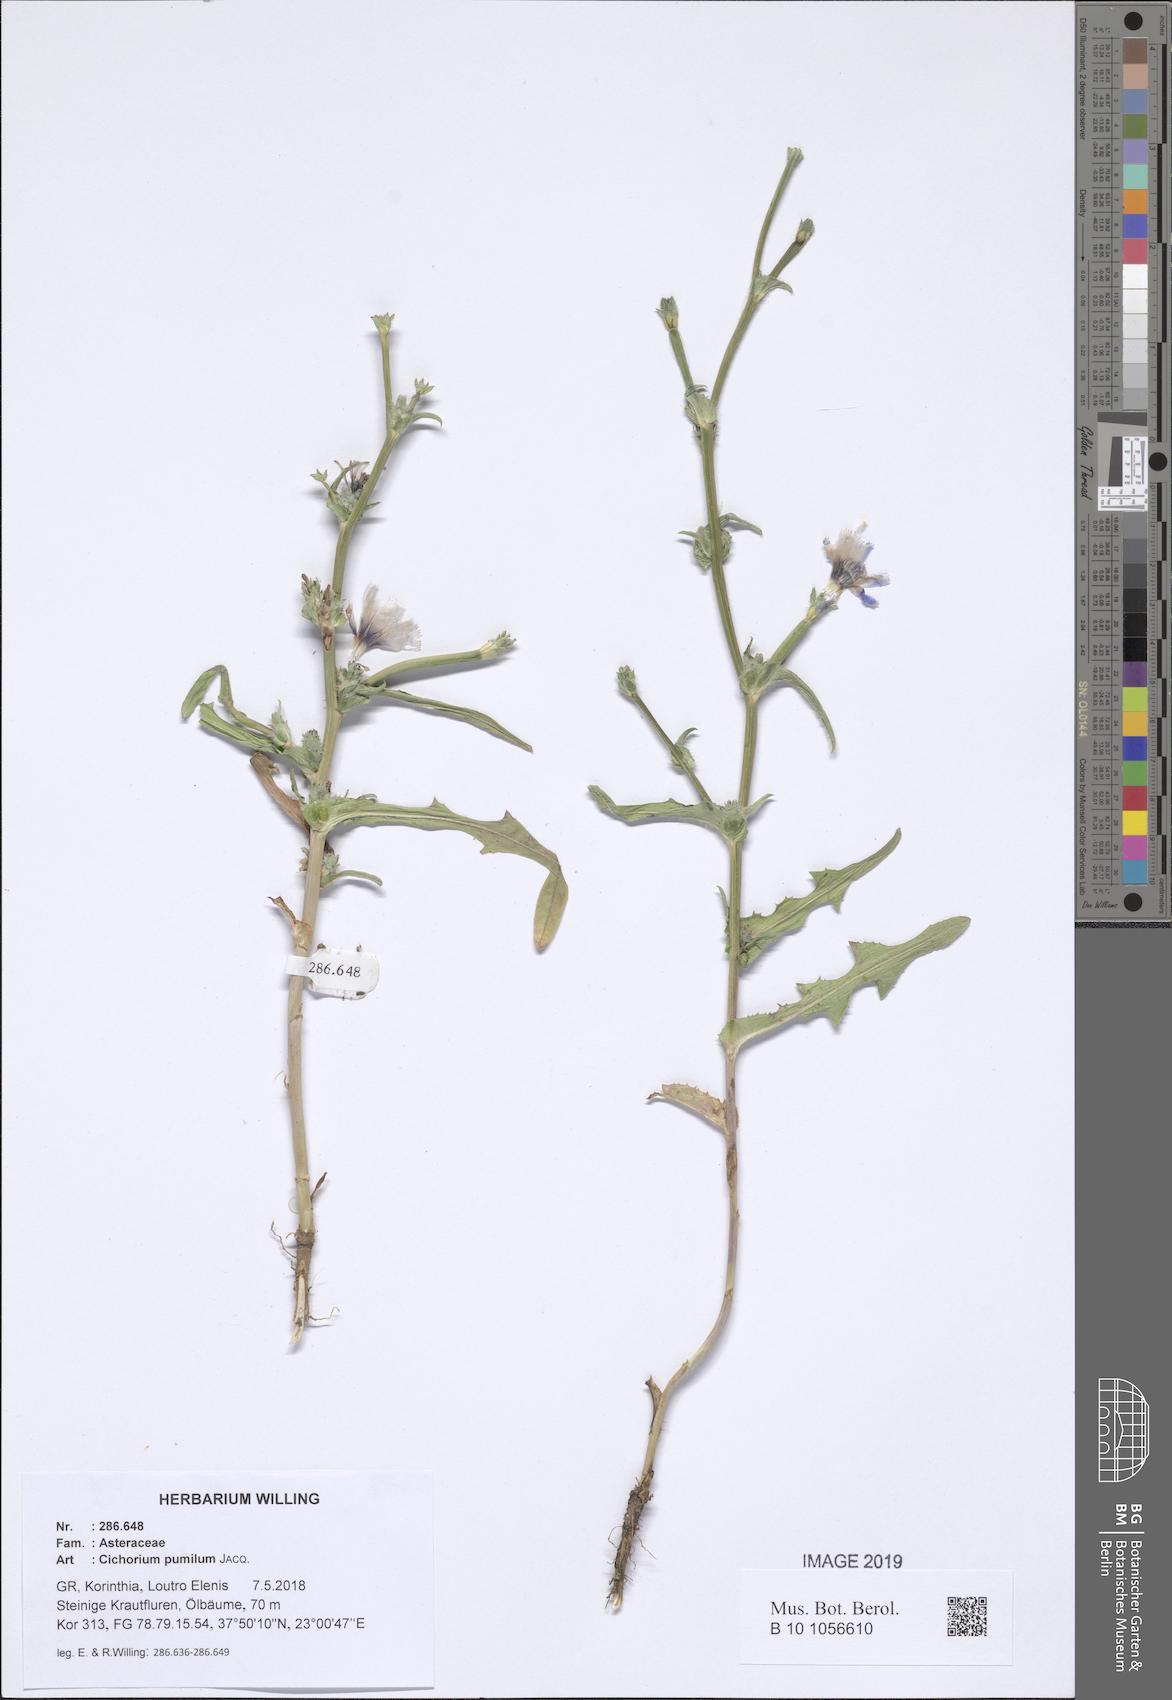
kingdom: Plantae
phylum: Tracheophyta
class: Magnoliopsida
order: Asterales
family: Asteraceae
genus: Cichorium
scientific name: Cichorium pumilum
